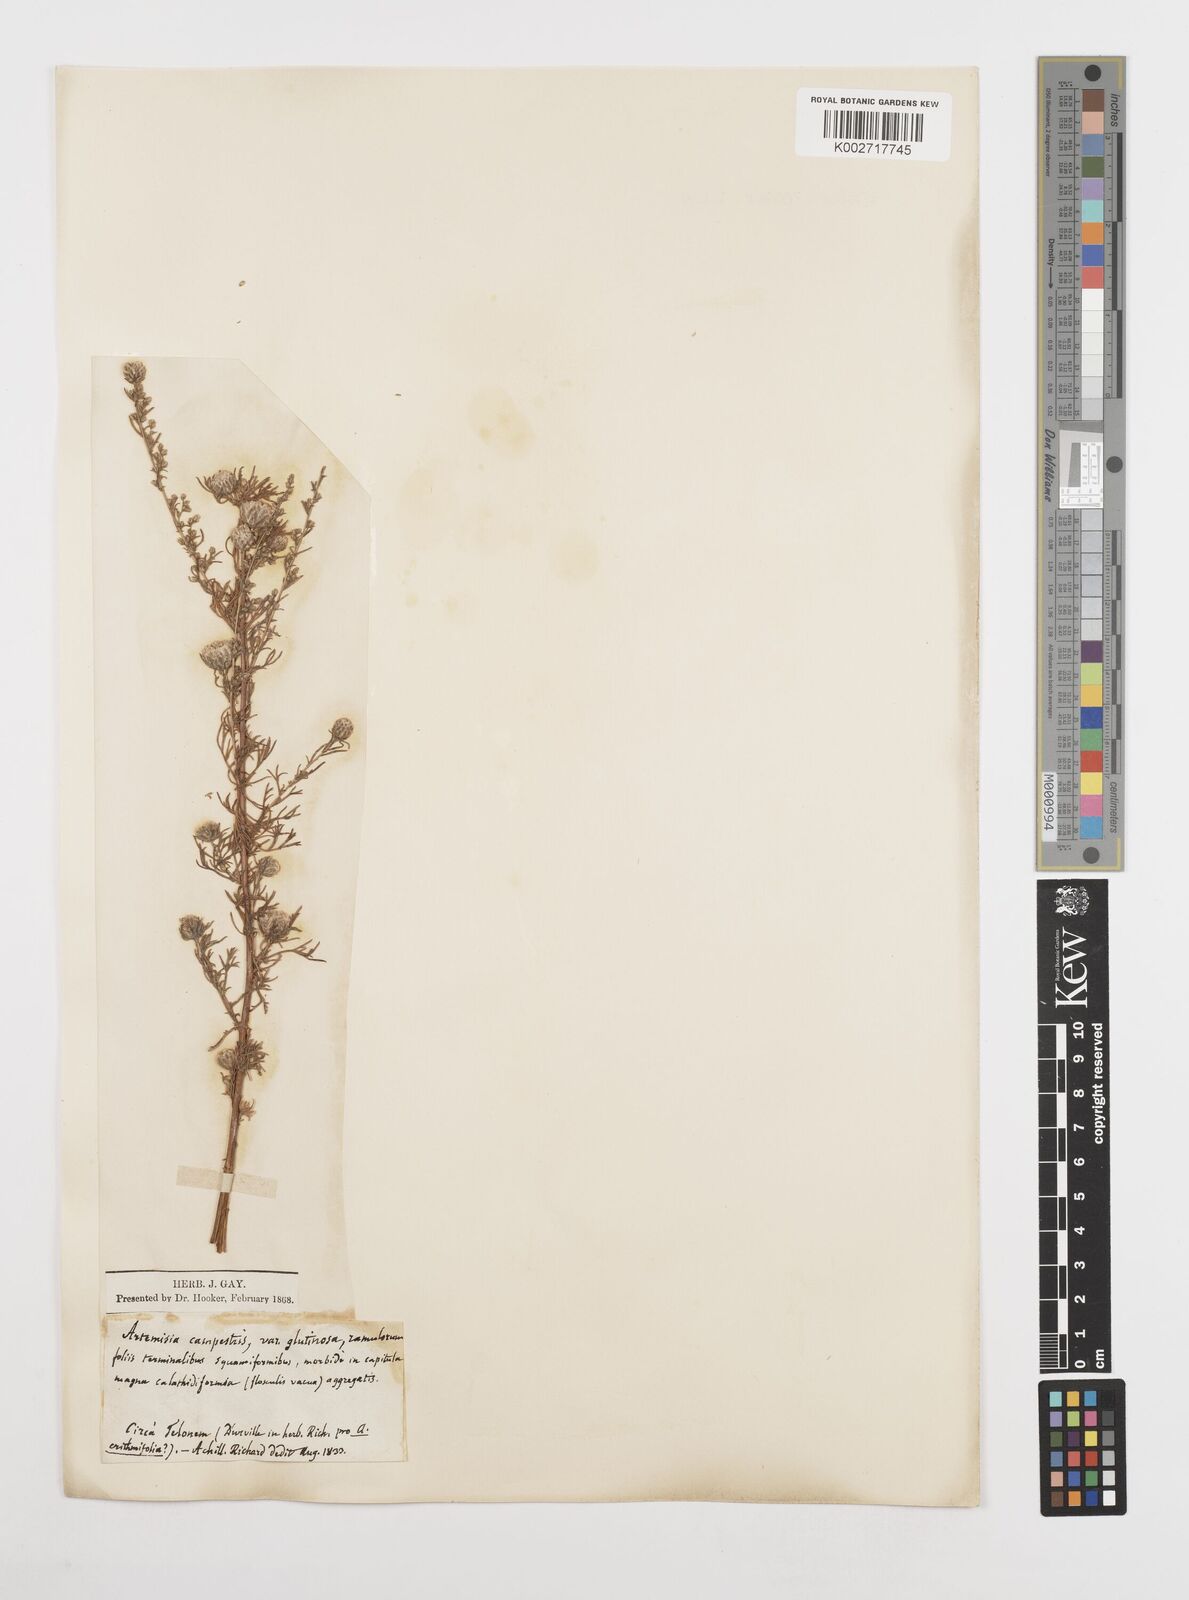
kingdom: Plantae
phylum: Tracheophyta
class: Magnoliopsida
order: Asterales
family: Asteraceae
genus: Artemisia
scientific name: Artemisia campestris
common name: Field wormwood
